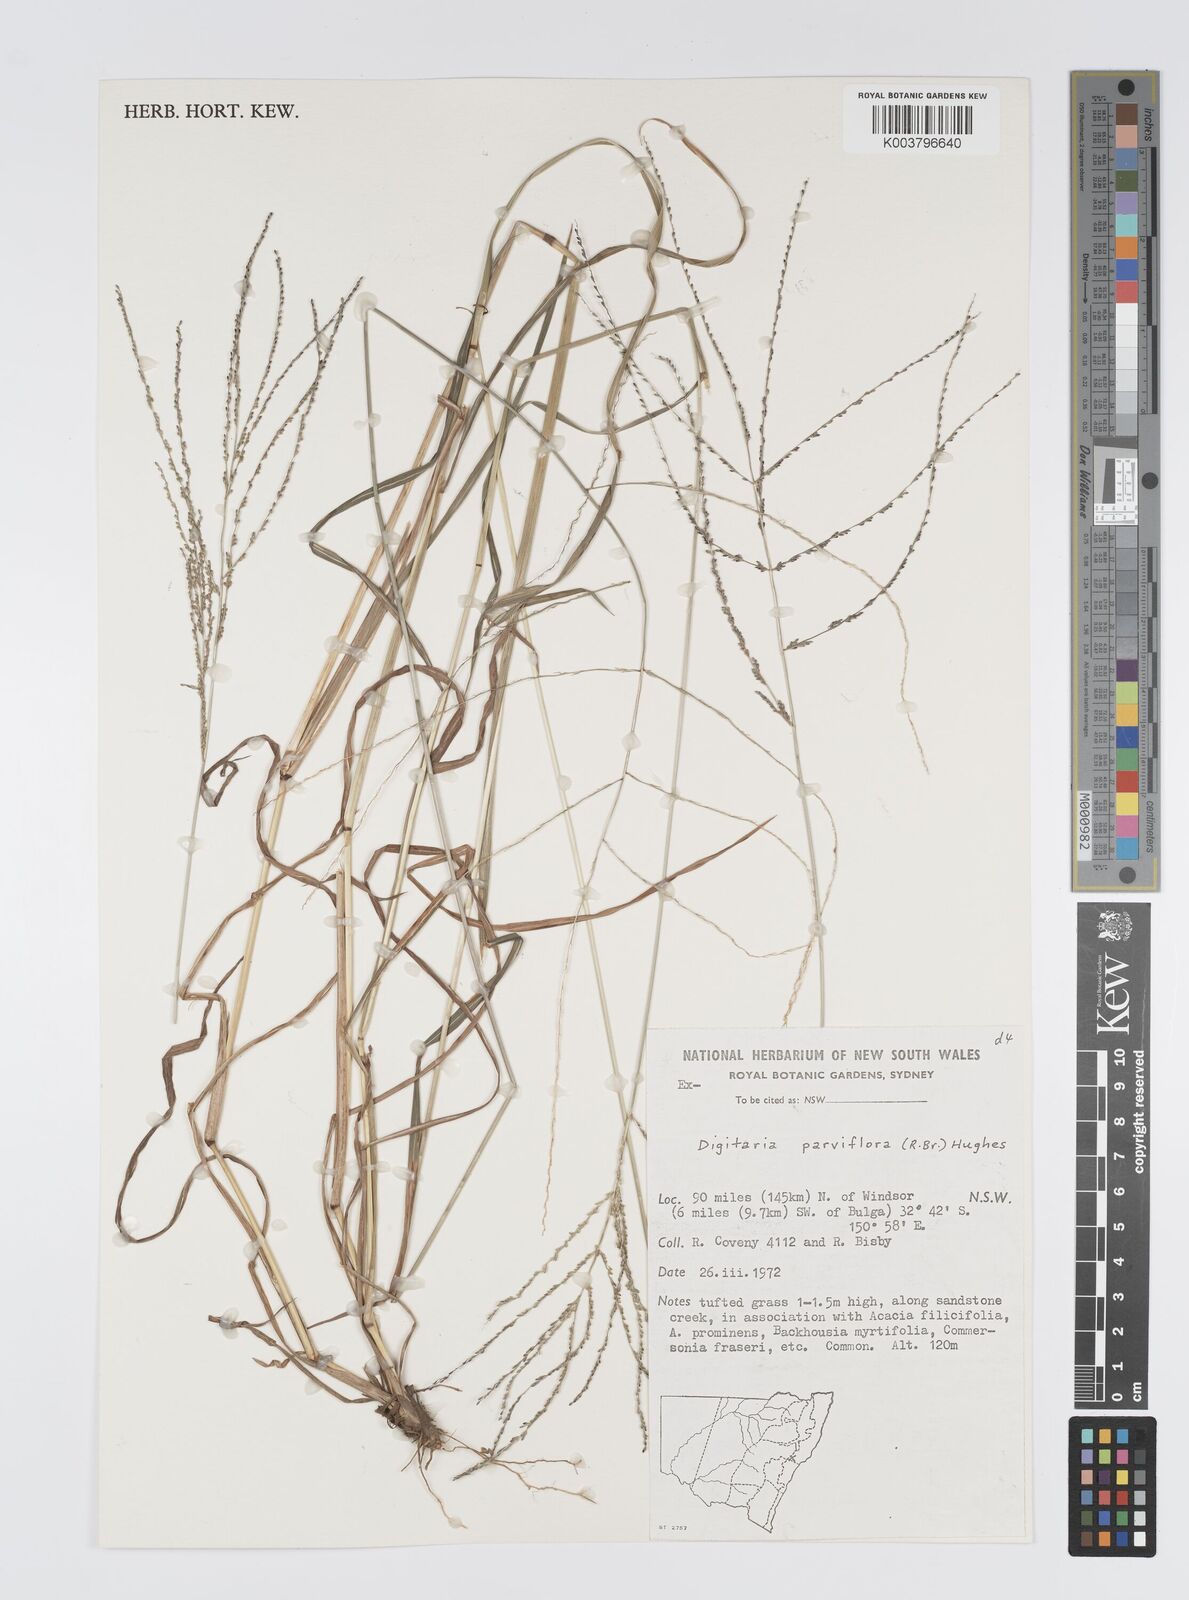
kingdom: Plantae
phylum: Tracheophyta
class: Liliopsida
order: Poales
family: Poaceae
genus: Digitaria
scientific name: Digitaria parviflora
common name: Small-flower finger grass
